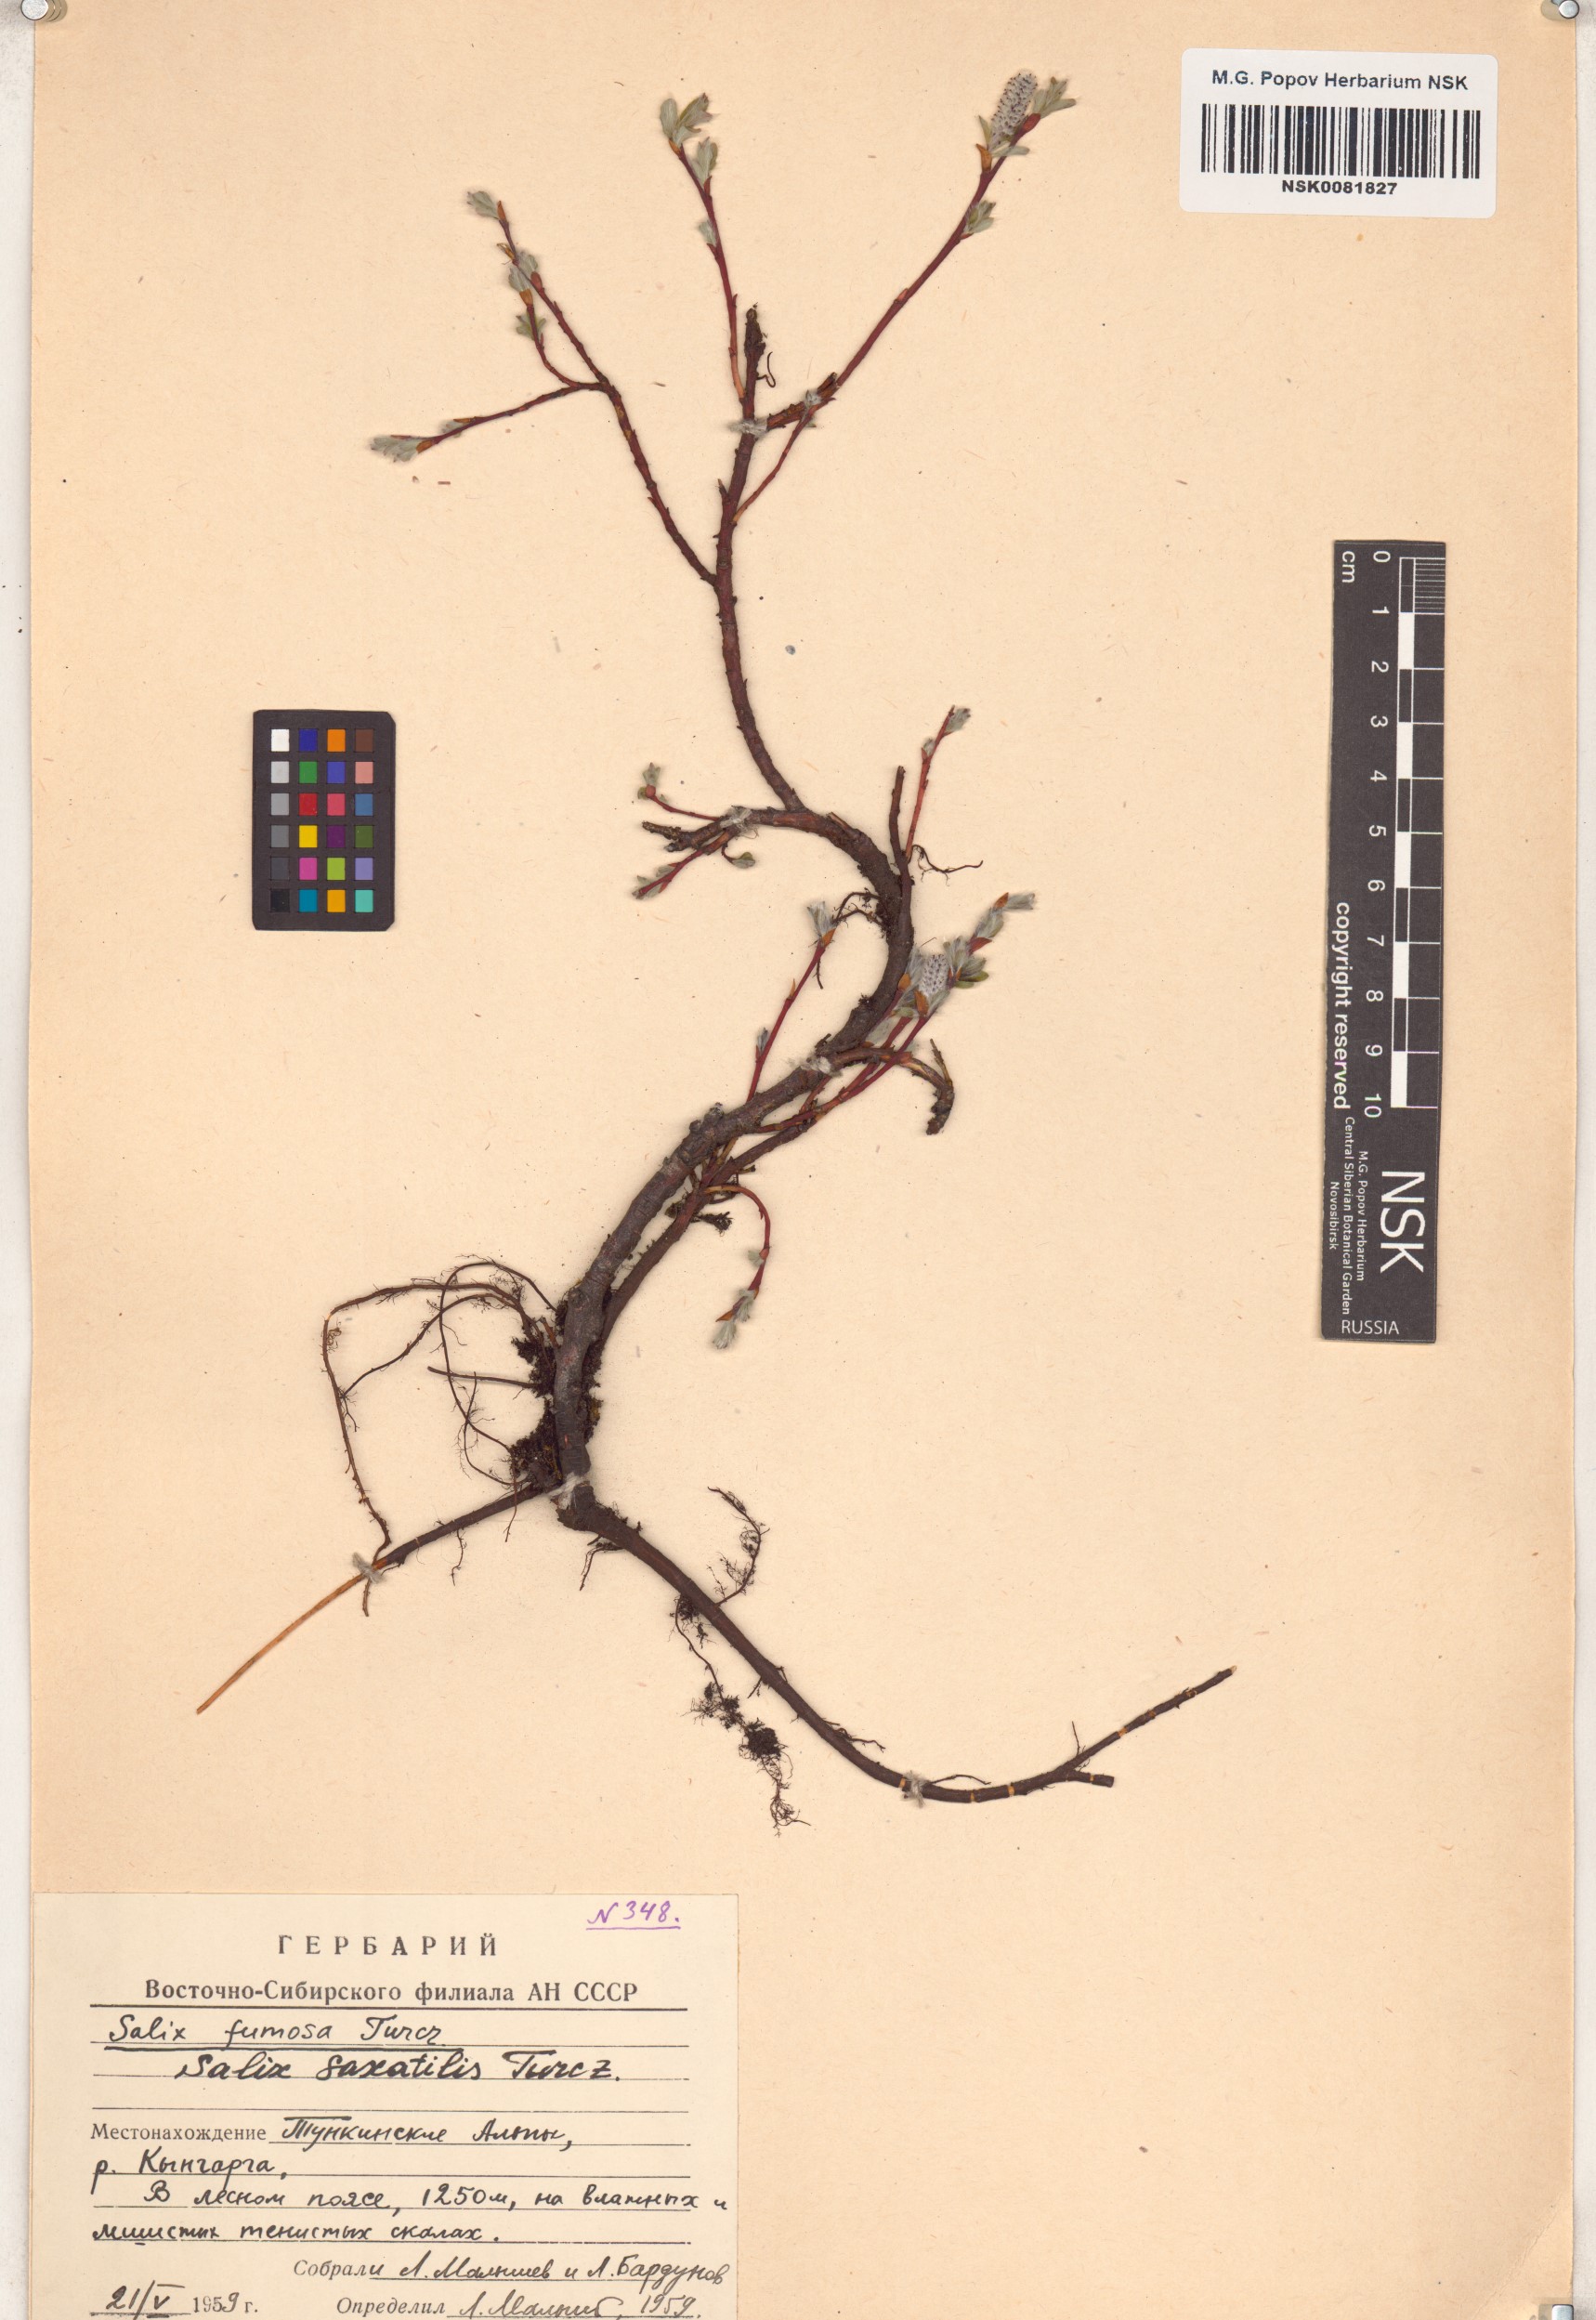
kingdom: Plantae
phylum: Tracheophyta
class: Magnoliopsida
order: Malpighiales
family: Salicaceae
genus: Salix
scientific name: Salix saxatilis
